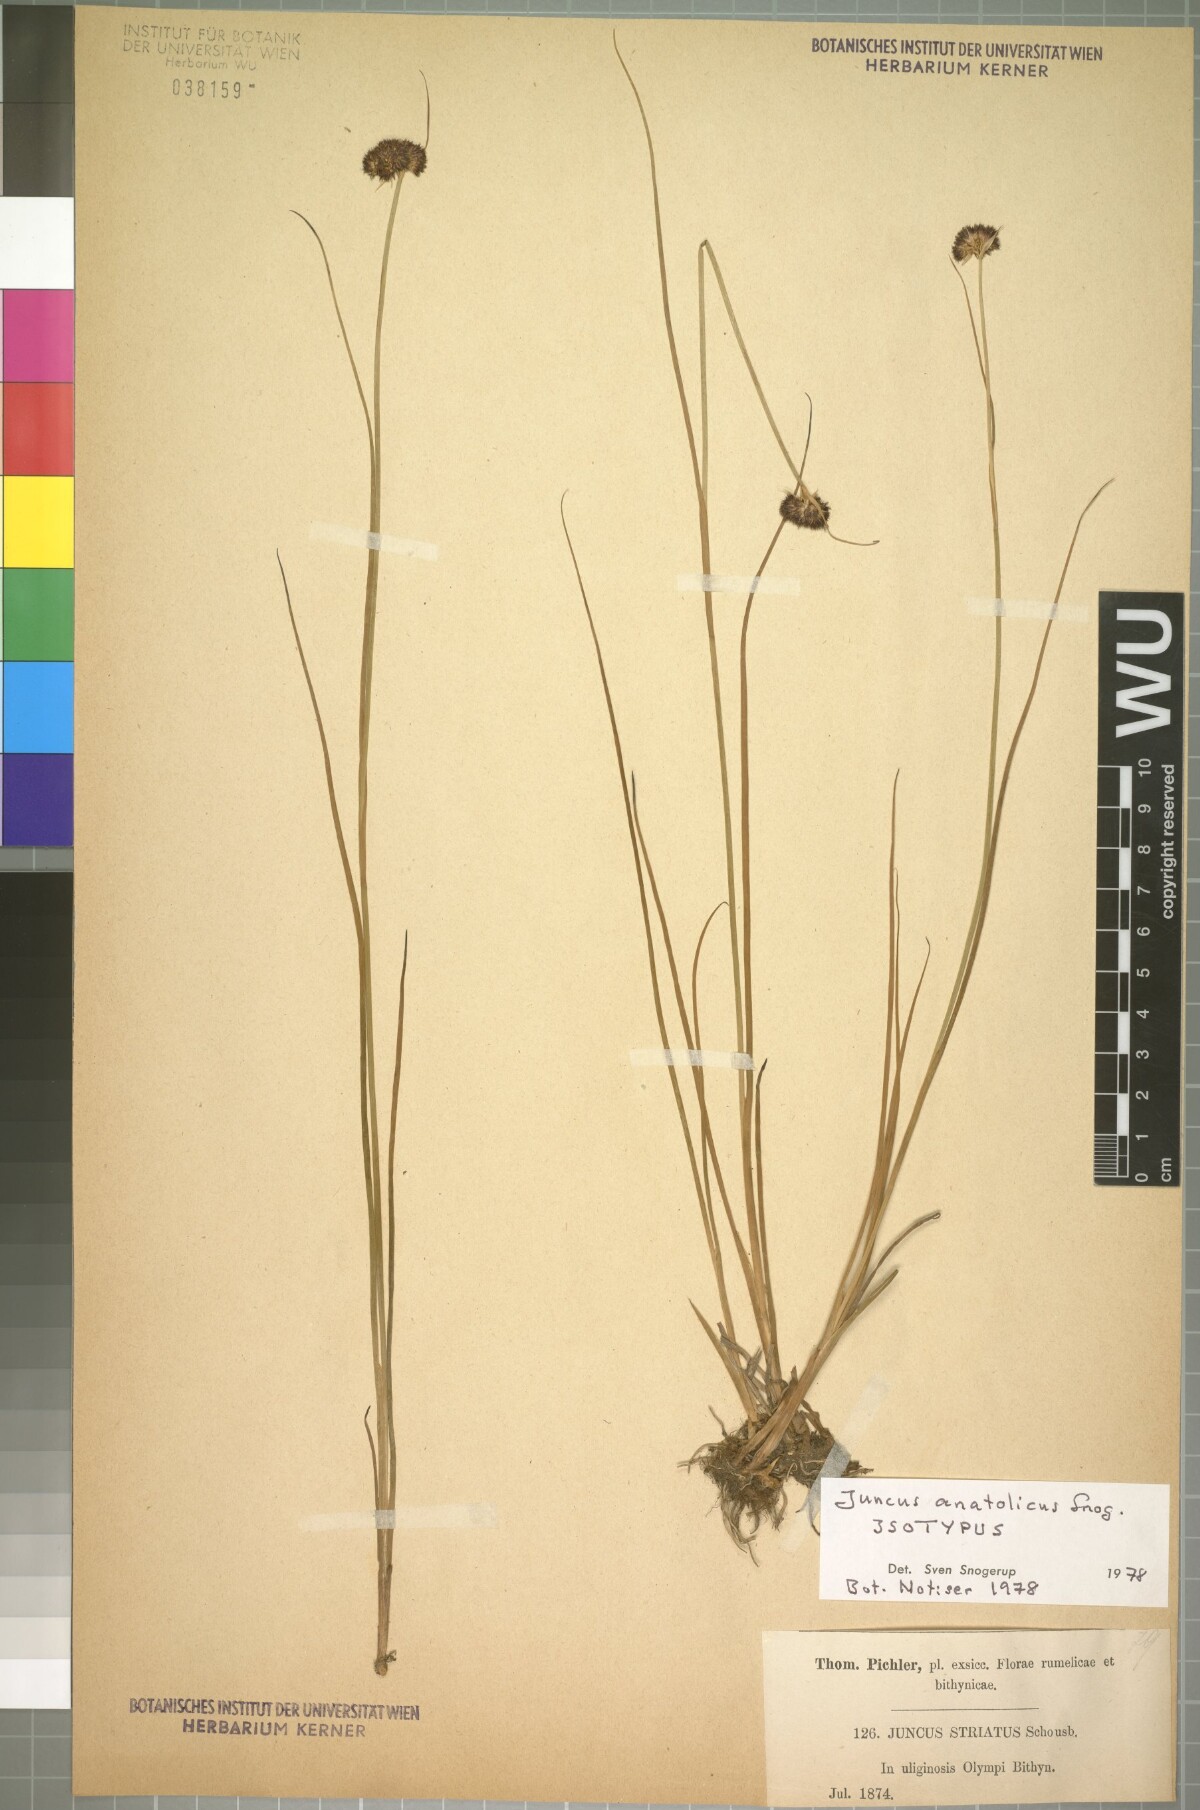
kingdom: Plantae
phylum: Tracheophyta
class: Liliopsida
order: Poales
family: Juncaceae
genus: Juncus
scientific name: Juncus anatolicus
